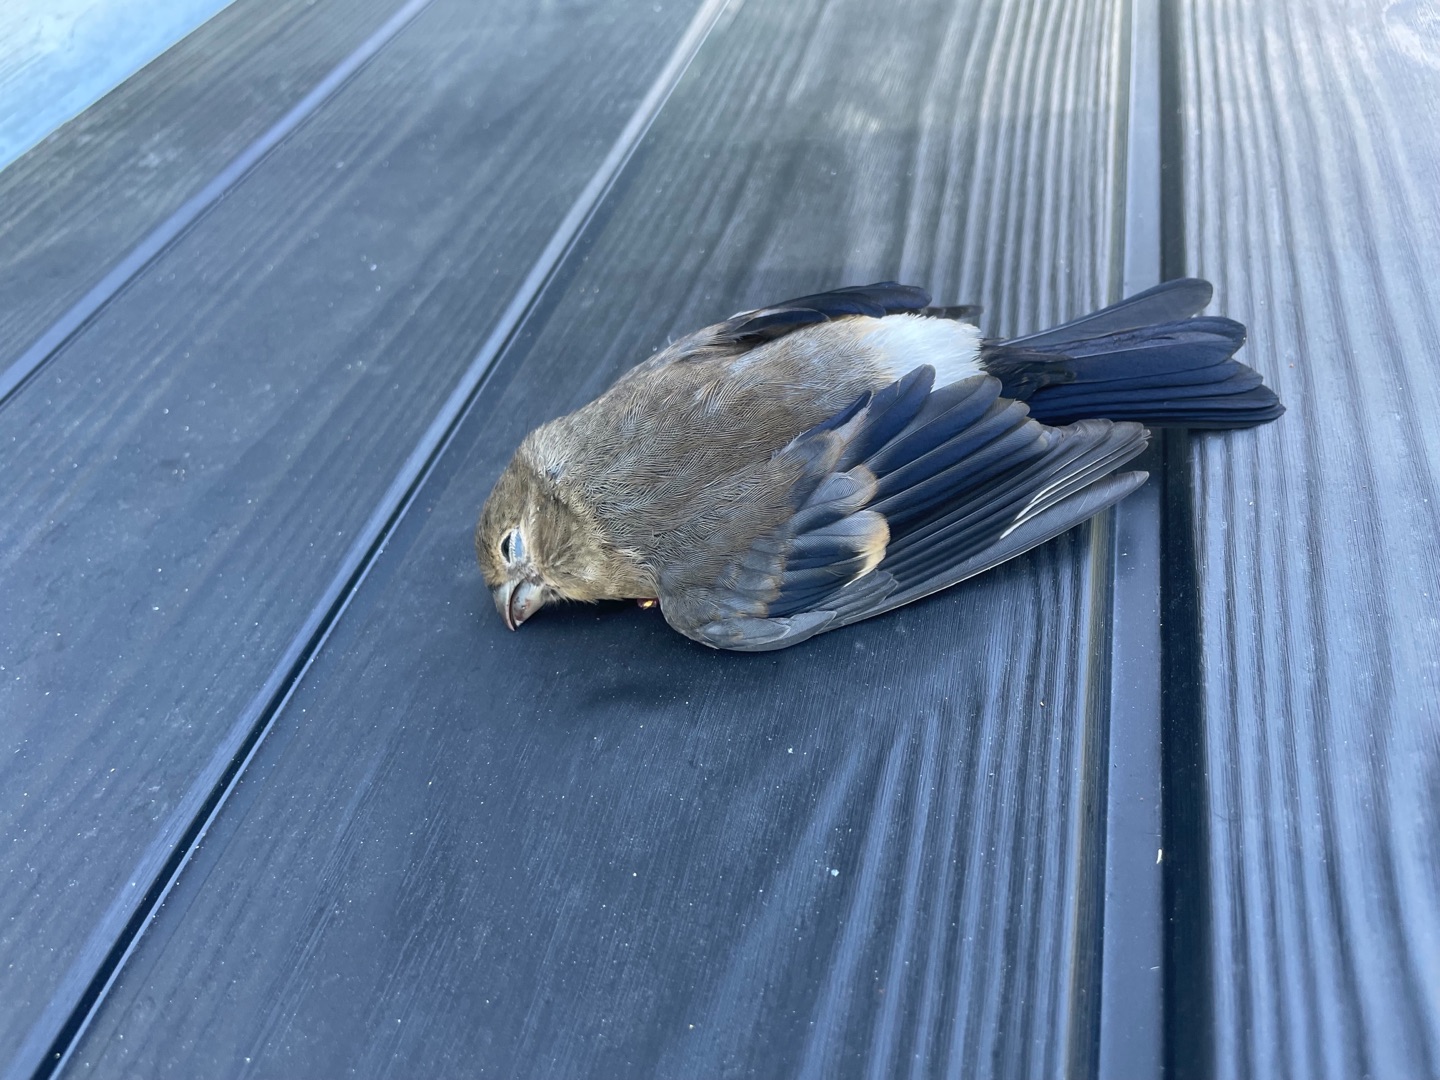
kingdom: Animalia
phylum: Chordata
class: Aves
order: Passeriformes
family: Fringillidae
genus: Pyrrhula
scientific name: Pyrrhula pyrrhula
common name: Dompap
